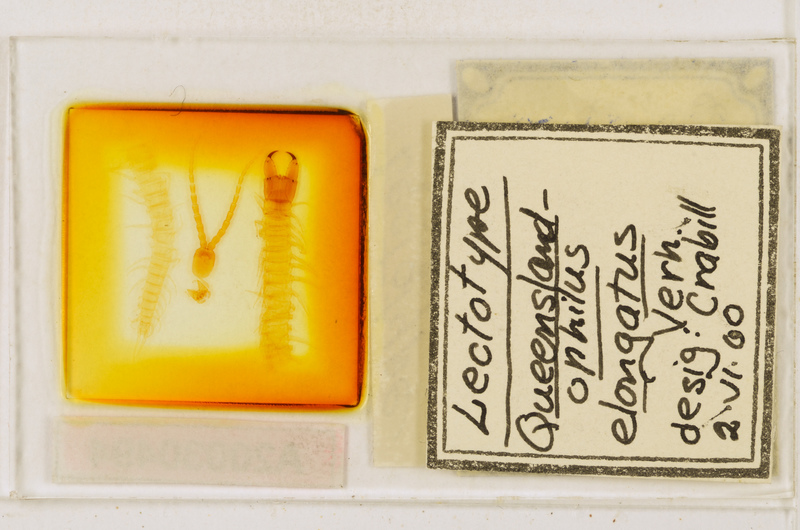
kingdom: Animalia
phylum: Arthropoda
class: Chilopoda
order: Geophilomorpha
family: Geophilidae
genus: Queenslandophilus
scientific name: Queenslandophilus elongatus
